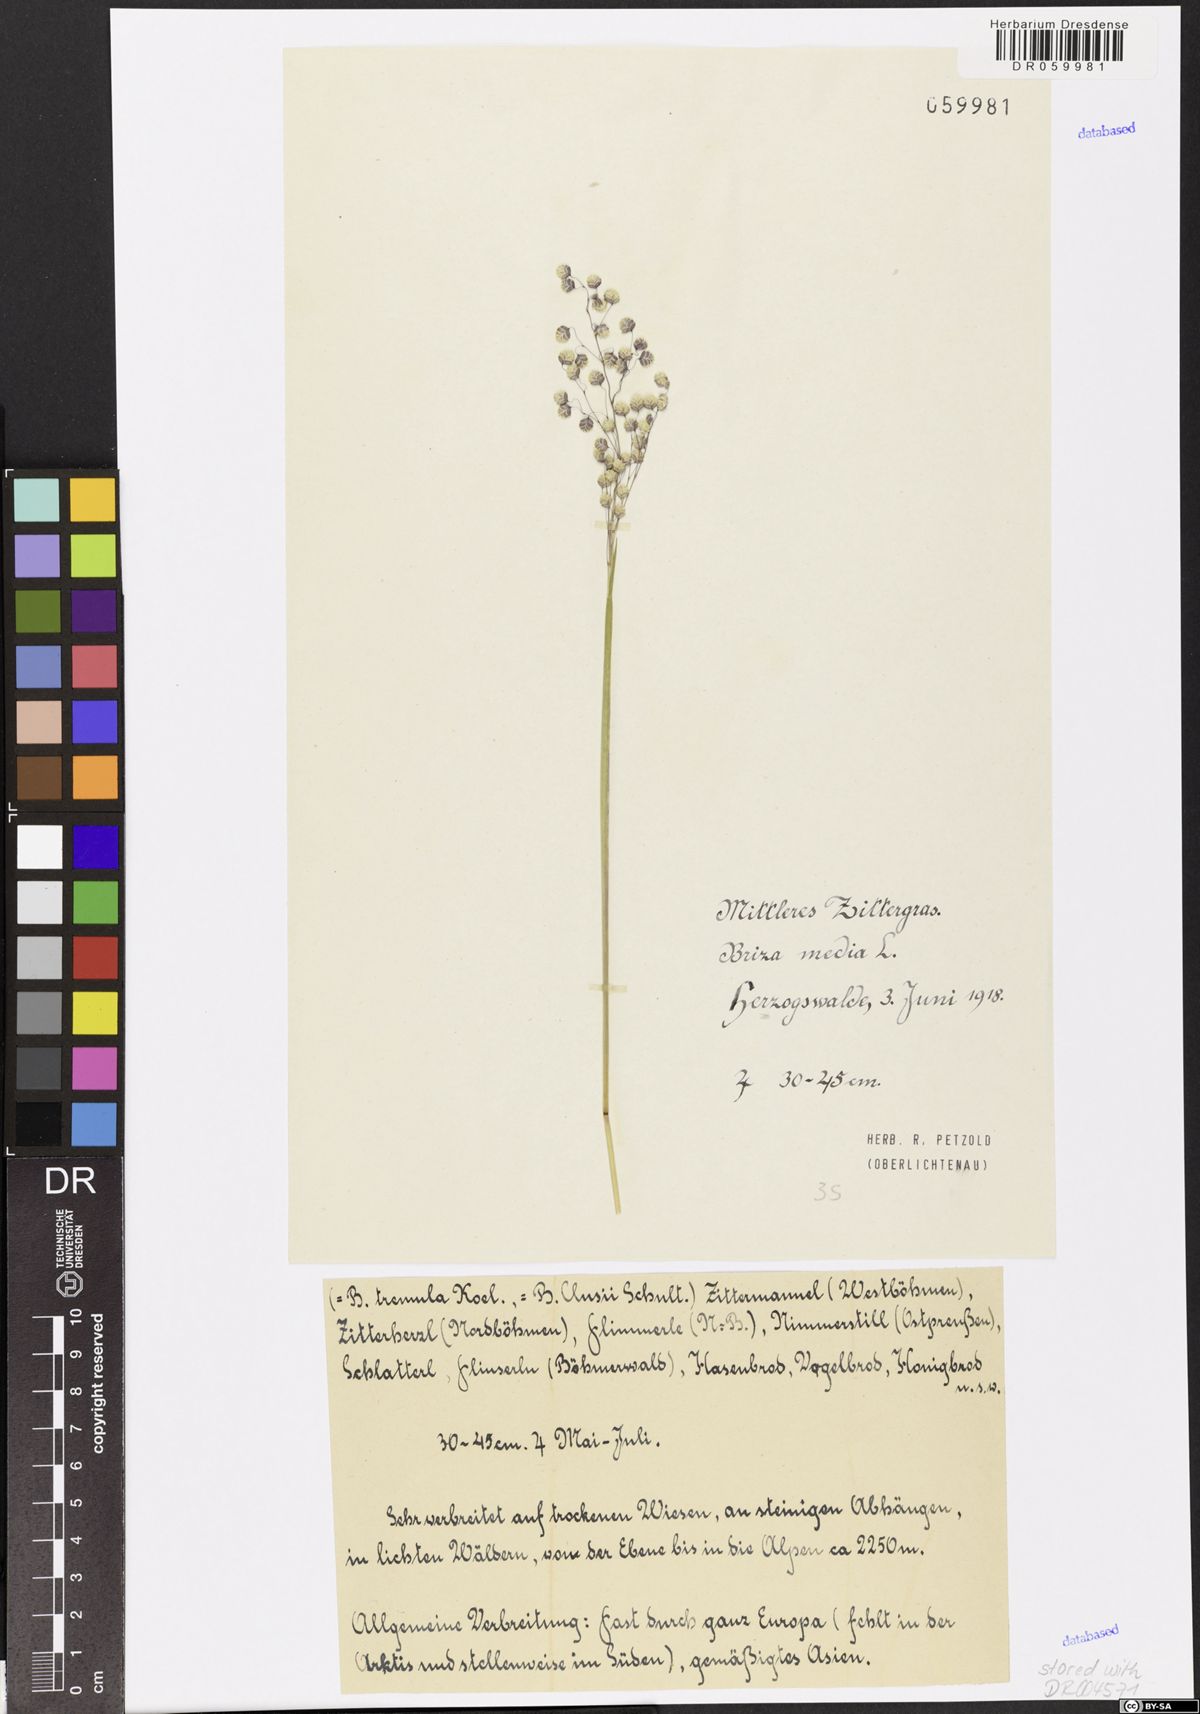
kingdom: Plantae
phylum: Tracheophyta
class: Liliopsida
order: Poales
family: Poaceae
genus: Briza
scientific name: Briza media
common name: Quaking grass
